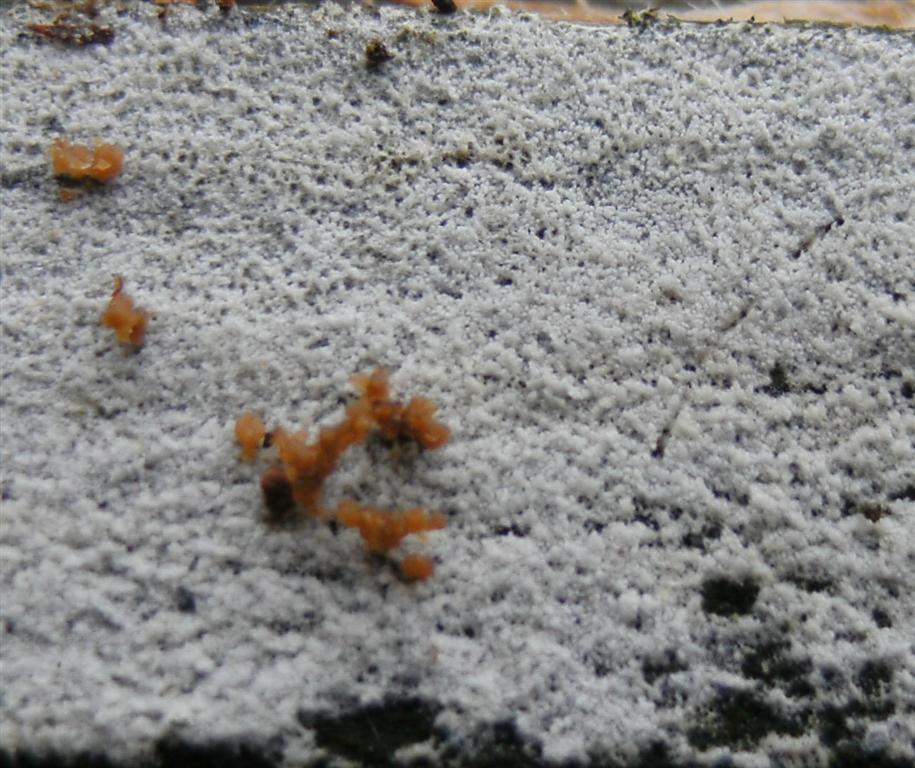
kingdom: Fungi
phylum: Basidiomycota
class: Agaricomycetes
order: Hymenochaetales
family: Schizoporaceae
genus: Xylodon
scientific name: Xylodon brevisetus
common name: tætvortet tandsvamp
